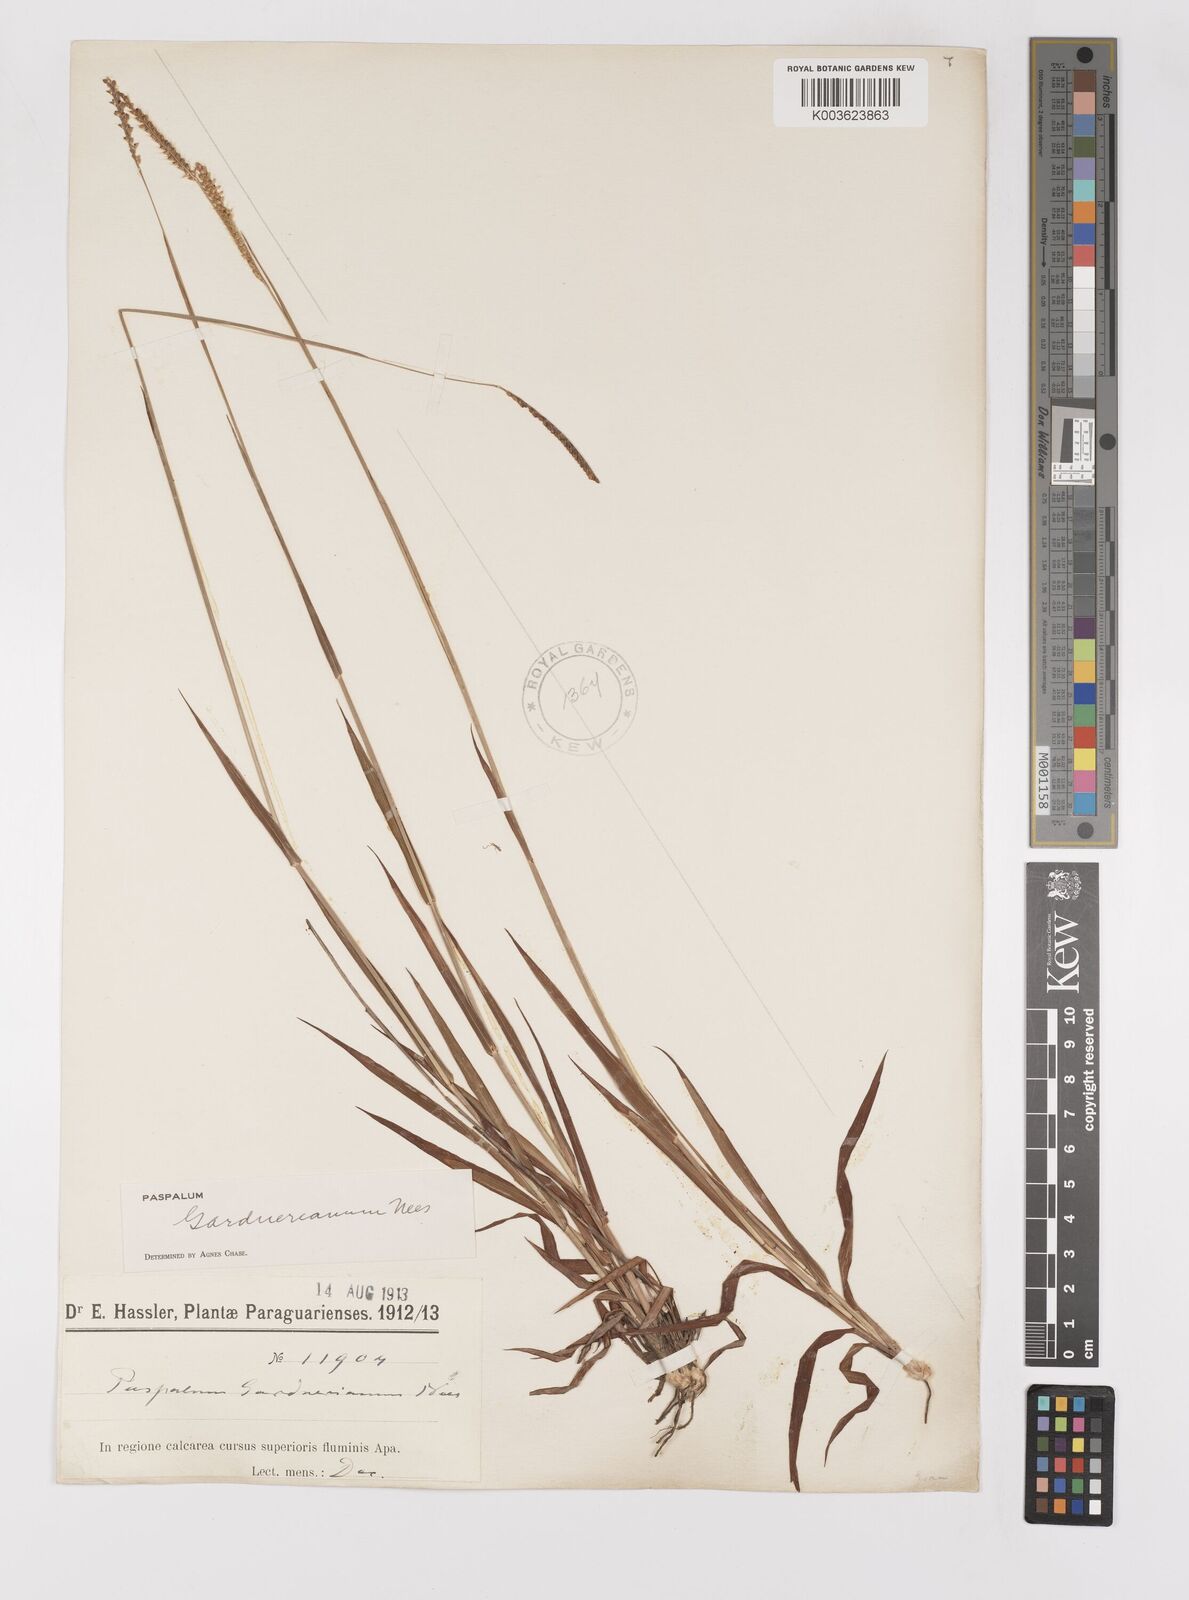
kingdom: Plantae
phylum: Tracheophyta
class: Liliopsida
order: Poales
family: Poaceae
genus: Paspalum
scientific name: Paspalum gardnerianum
